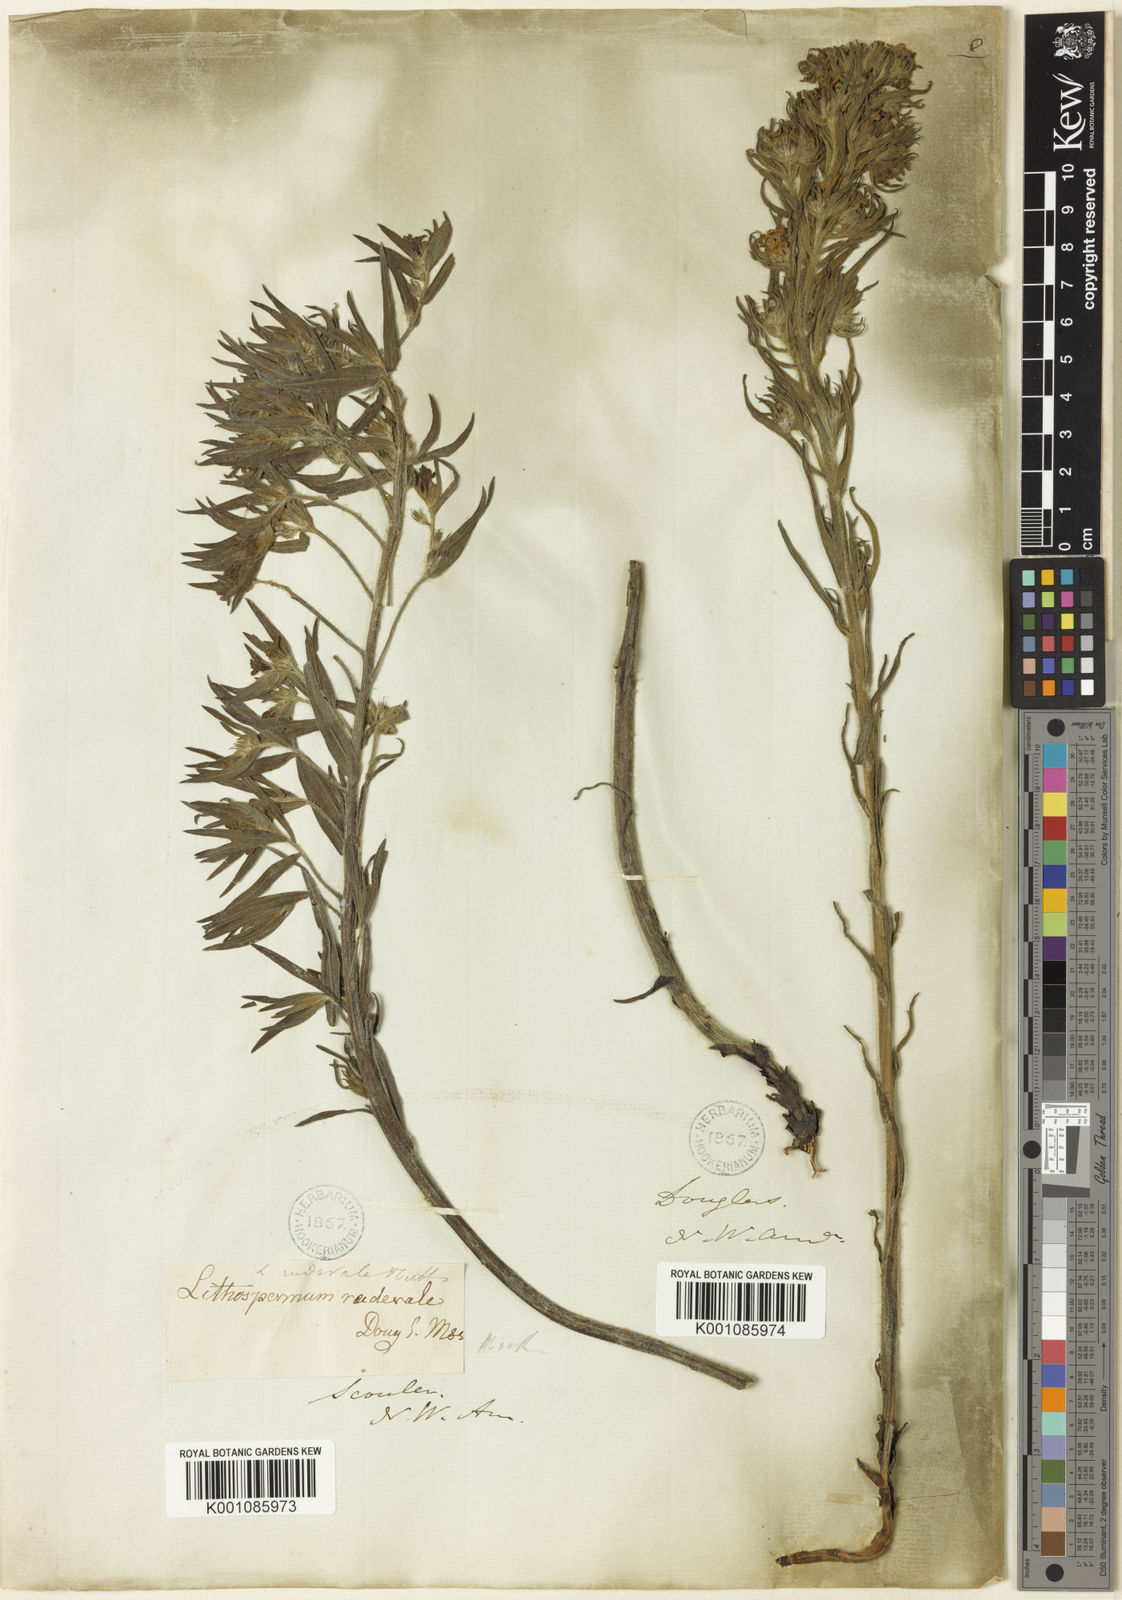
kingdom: Plantae
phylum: Tracheophyta
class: Magnoliopsida
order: Boraginales
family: Boraginaceae
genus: Lithospermum
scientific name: Lithospermum ruderale
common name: Western gromwell
